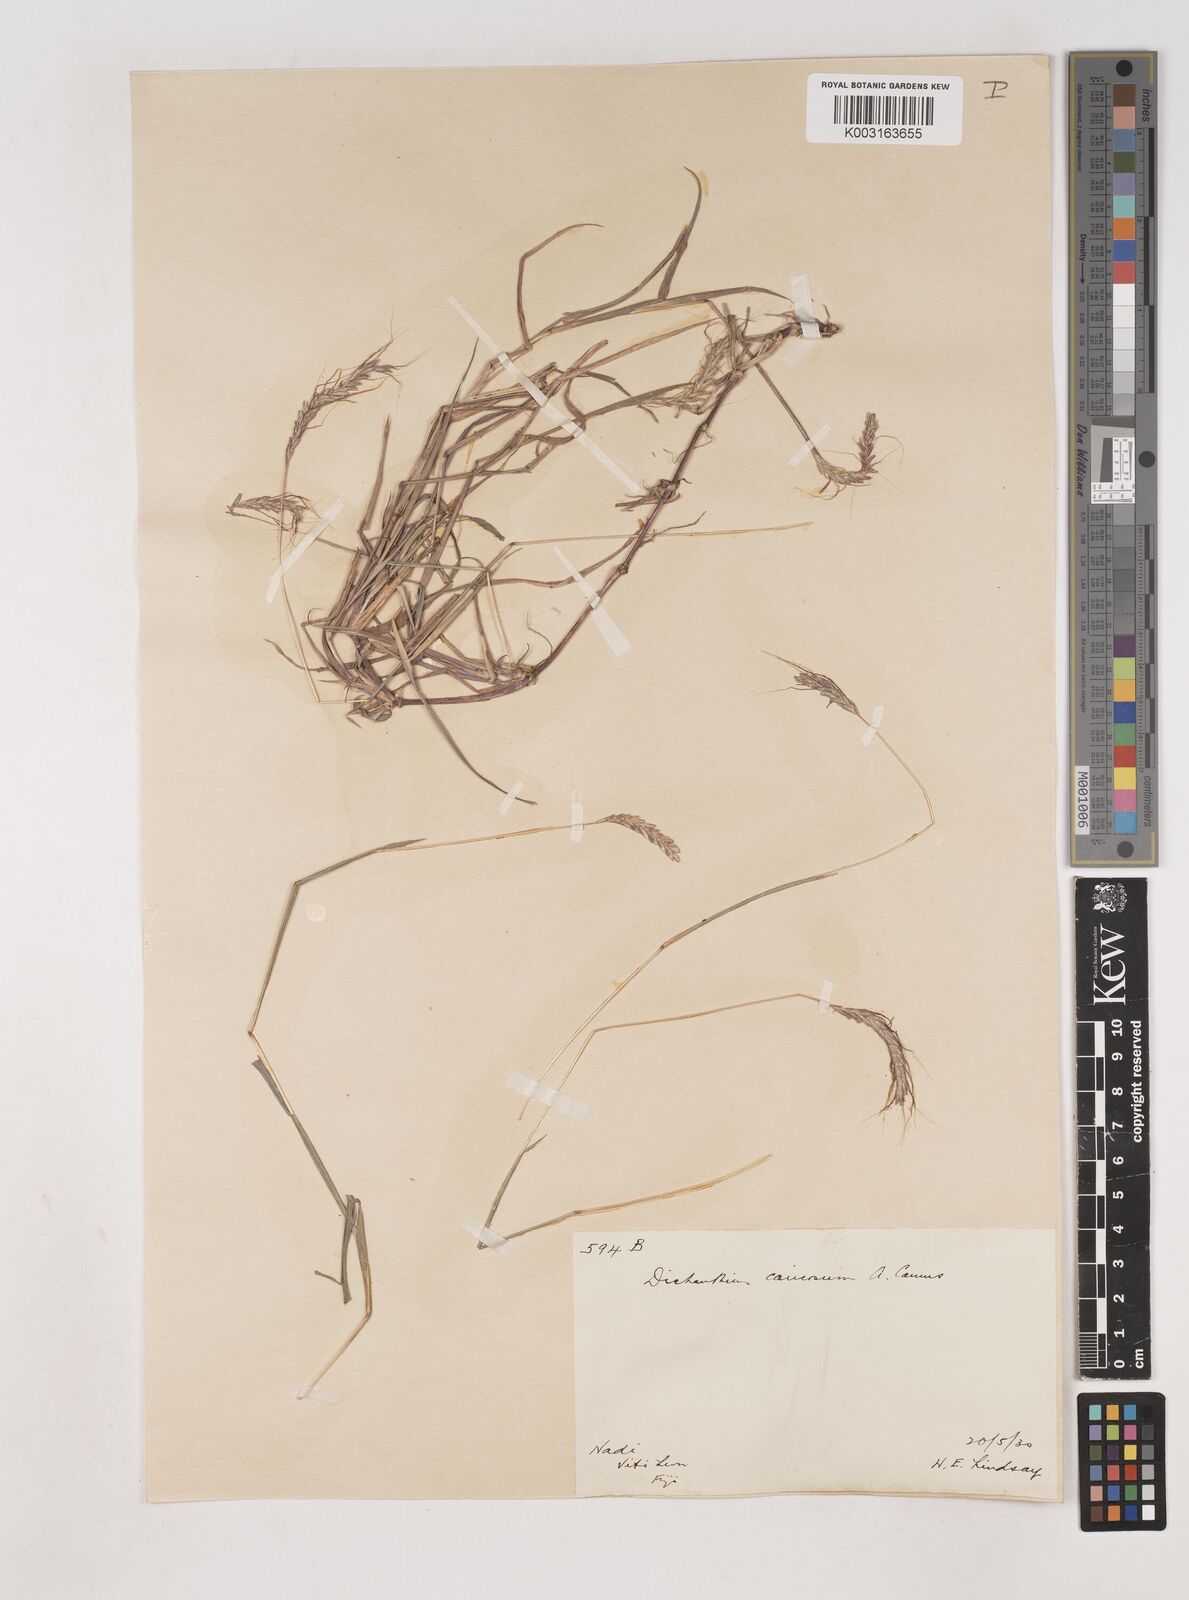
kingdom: Plantae
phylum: Tracheophyta
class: Liliopsida
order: Poales
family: Poaceae
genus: Dichanthium
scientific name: Dichanthium caricosum
